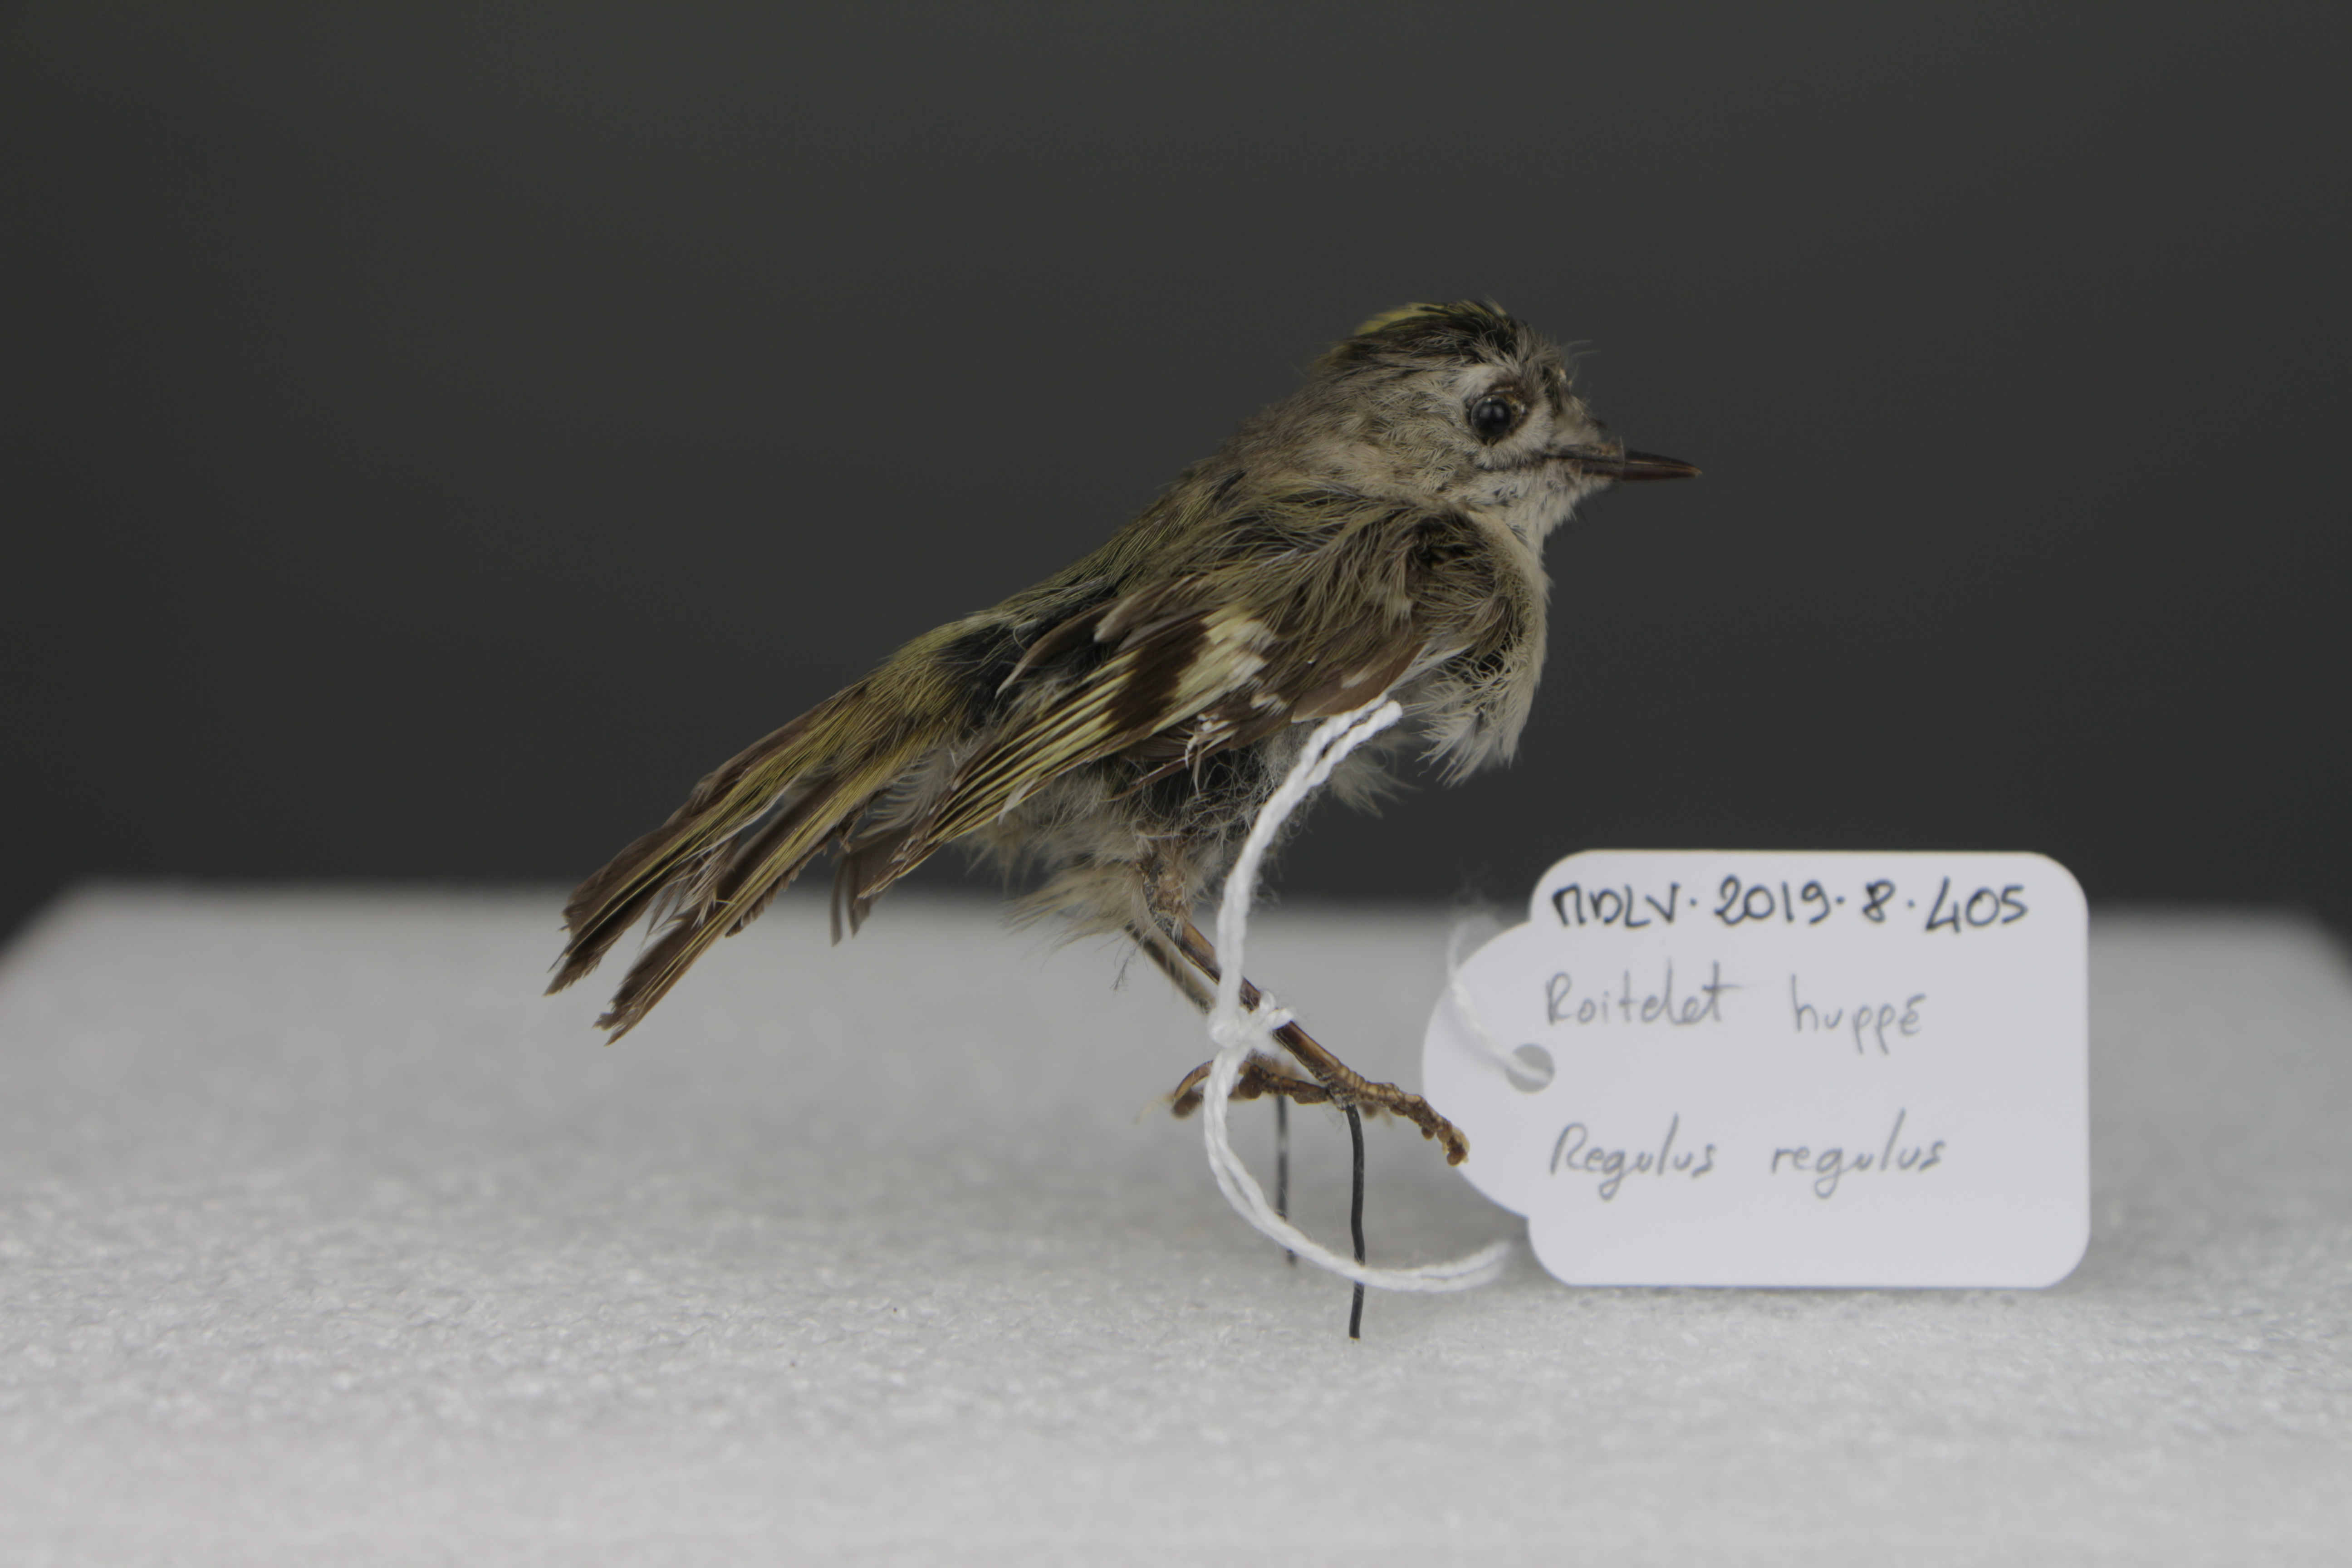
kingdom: Animalia
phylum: Chordata
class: Aves
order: Passeriformes
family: Regulidae
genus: Regulus
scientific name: Regulus regulus
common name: Goldcrest
